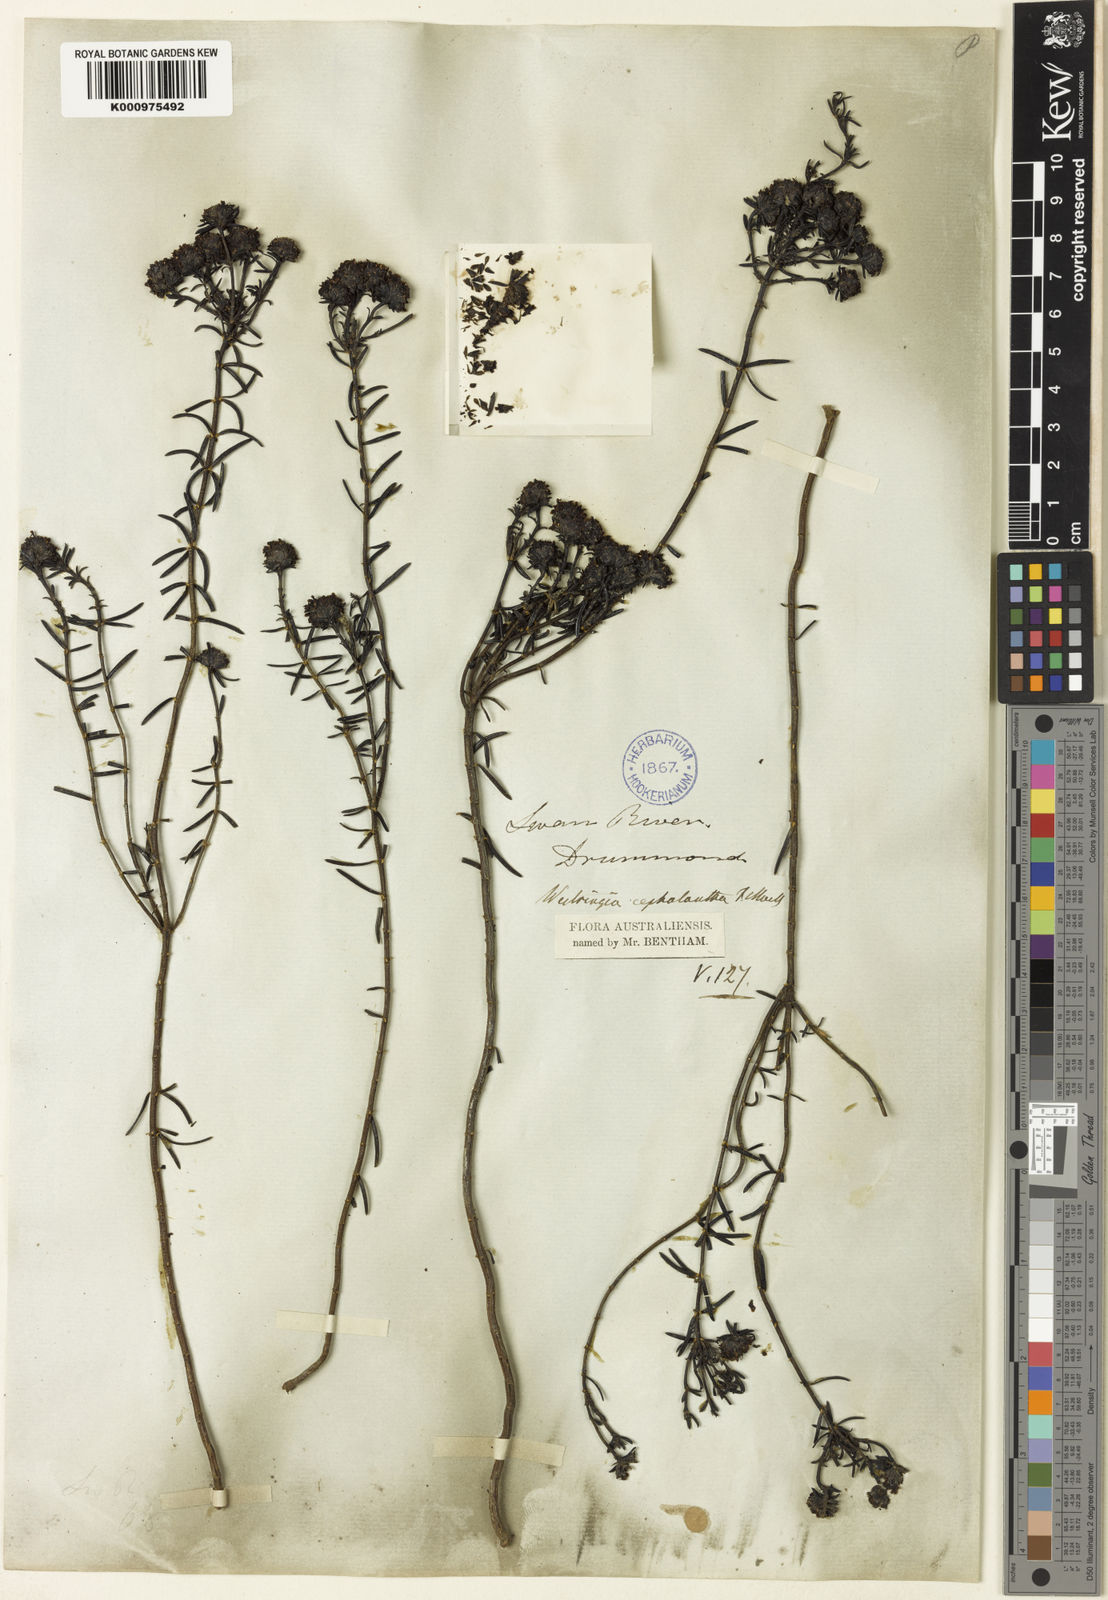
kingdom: Plantae
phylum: Tracheophyta
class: Magnoliopsida
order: Lamiales
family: Lamiaceae
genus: Westringia
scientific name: Westringia cephalantha
